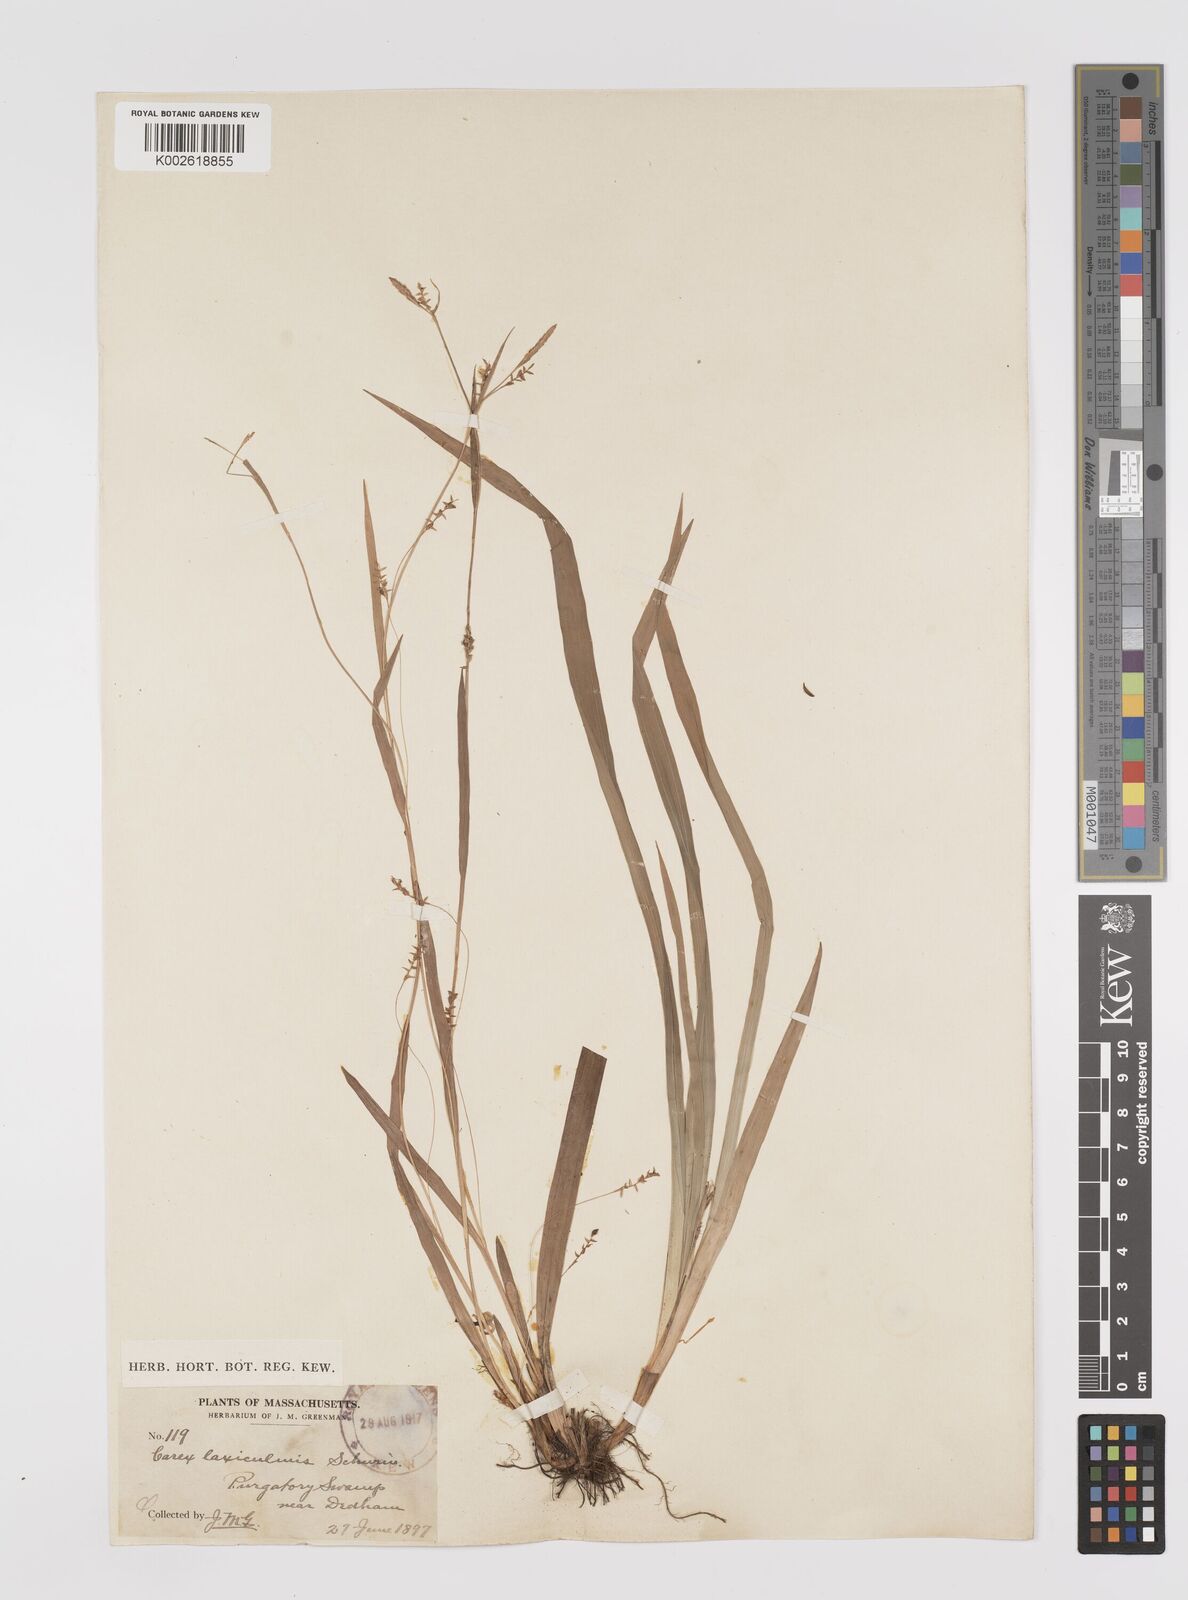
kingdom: Plantae
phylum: Tracheophyta
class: Liliopsida
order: Poales
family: Cyperaceae
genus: Carex
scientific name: Carex laxiculmis
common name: Spreading sedge
